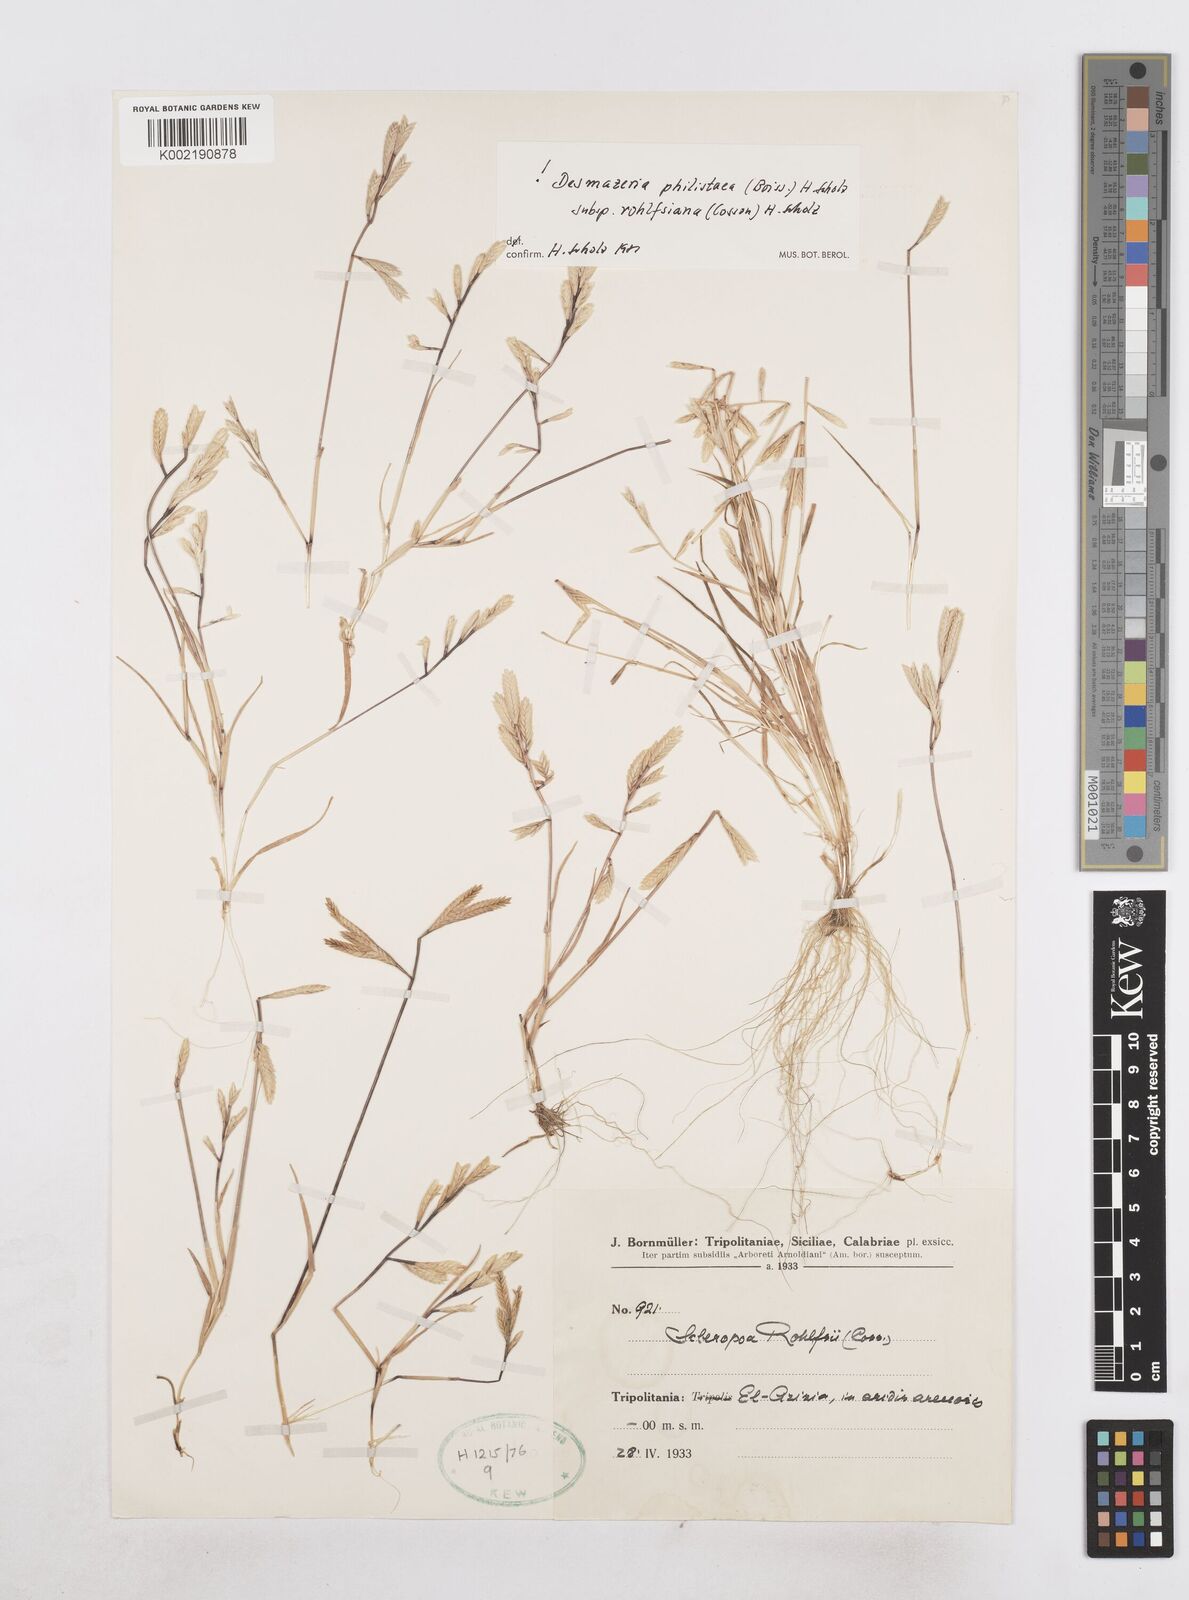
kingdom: Plantae
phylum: Tracheophyta
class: Liliopsida
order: Poales
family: Poaceae
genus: Desmazeria
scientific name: Desmazeria philistaea
